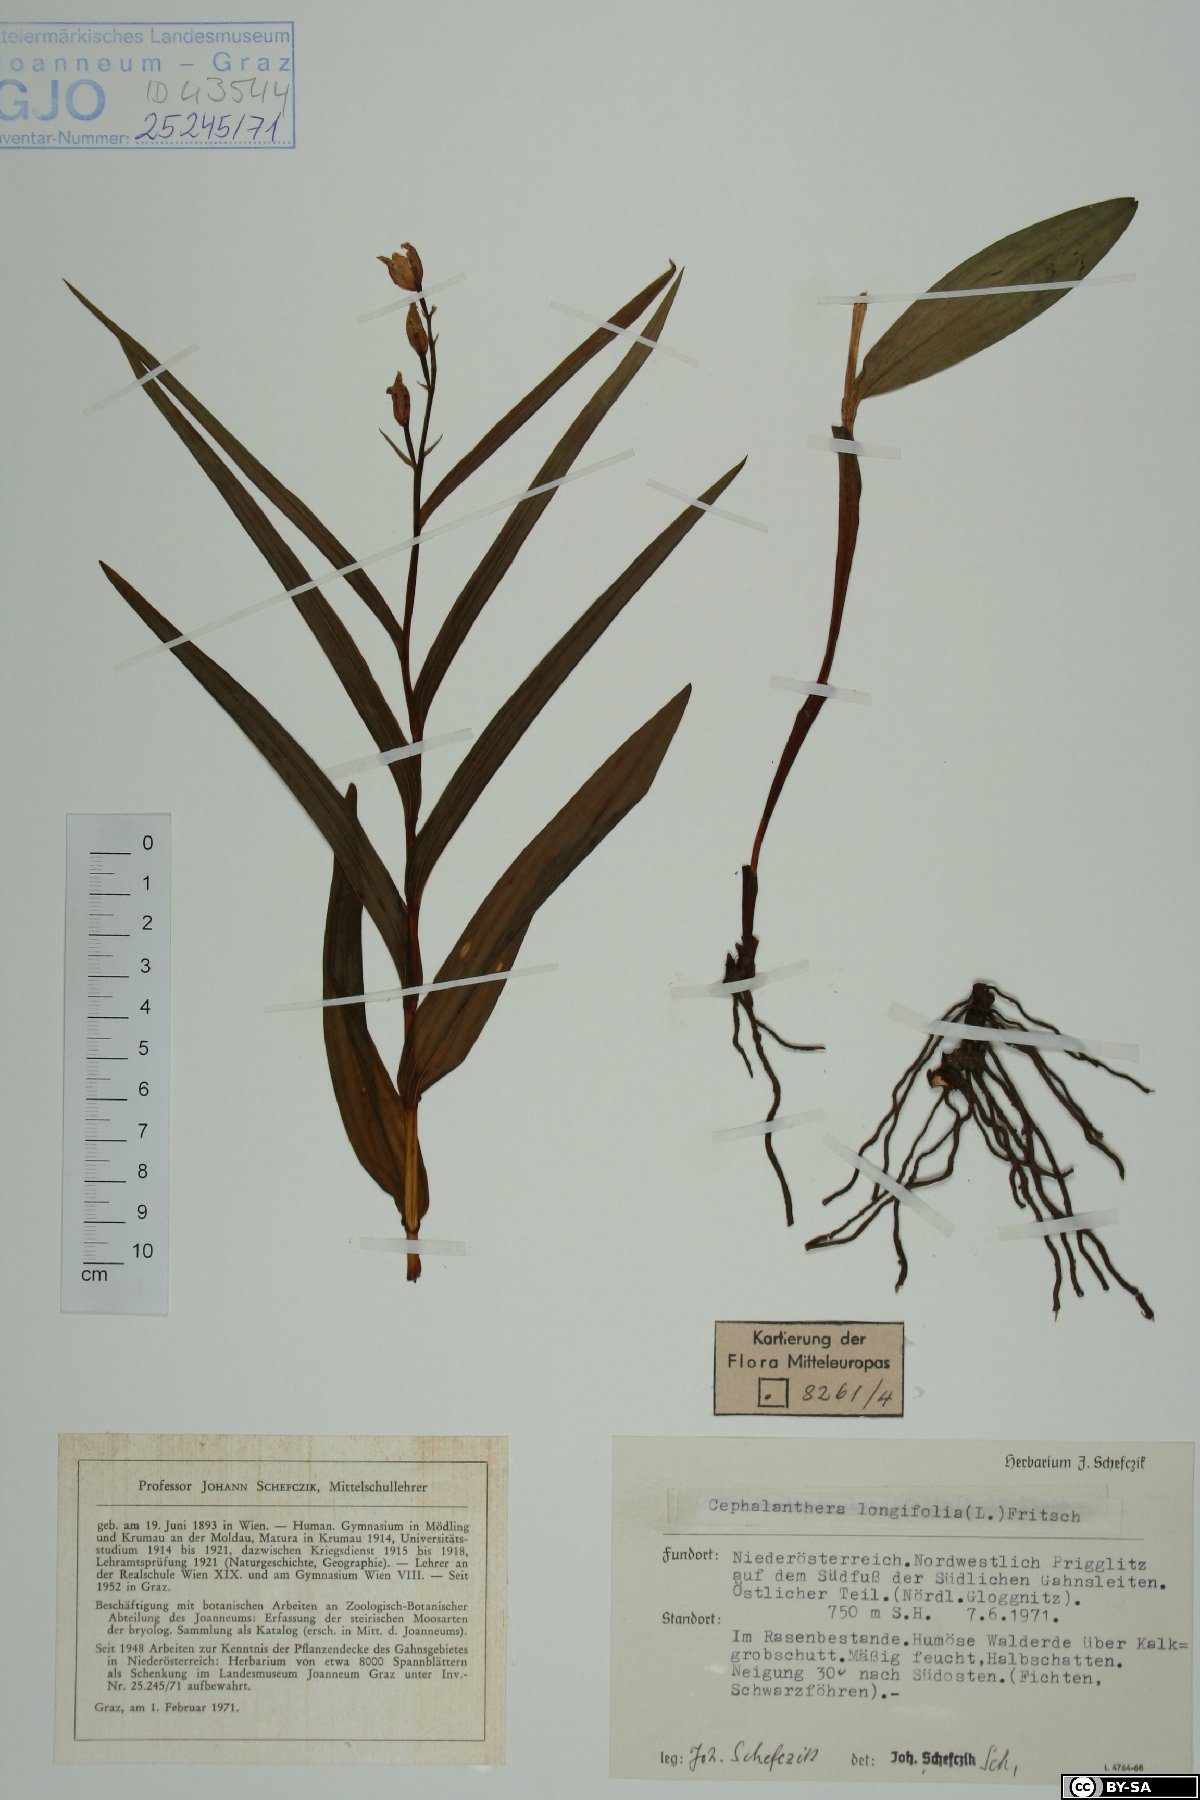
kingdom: Plantae
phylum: Tracheophyta
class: Liliopsida
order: Asparagales
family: Orchidaceae
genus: Cephalanthera
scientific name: Cephalanthera longifolia
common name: Narrow-leaved helleborine
